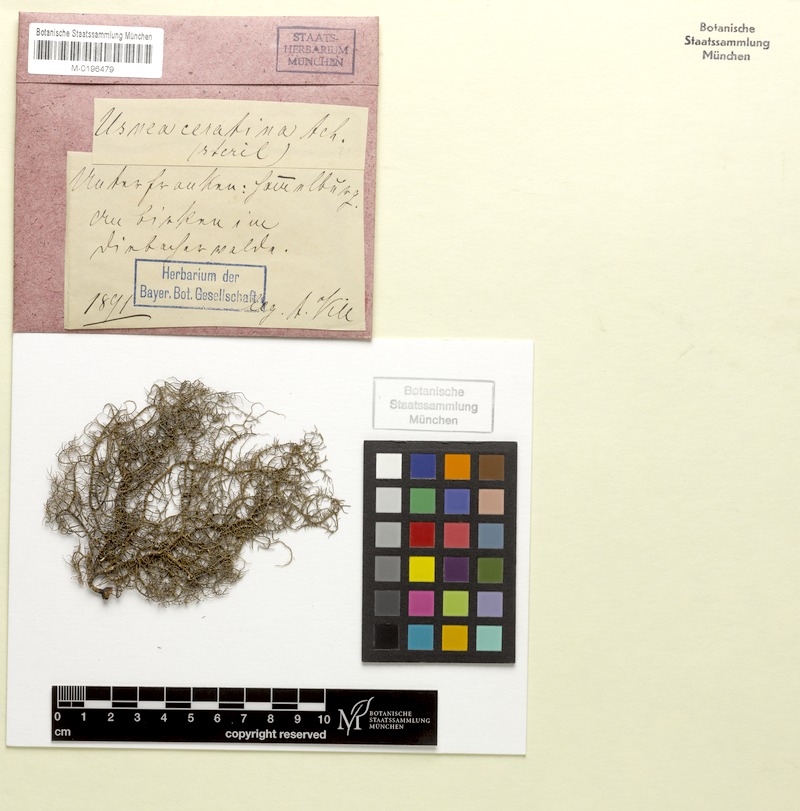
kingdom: Fungi
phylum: Ascomycota
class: Lecanoromycetes
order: Lecanorales
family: Parmeliaceae
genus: Usnea
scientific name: Usnea ceratina
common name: Warty beard lichen
